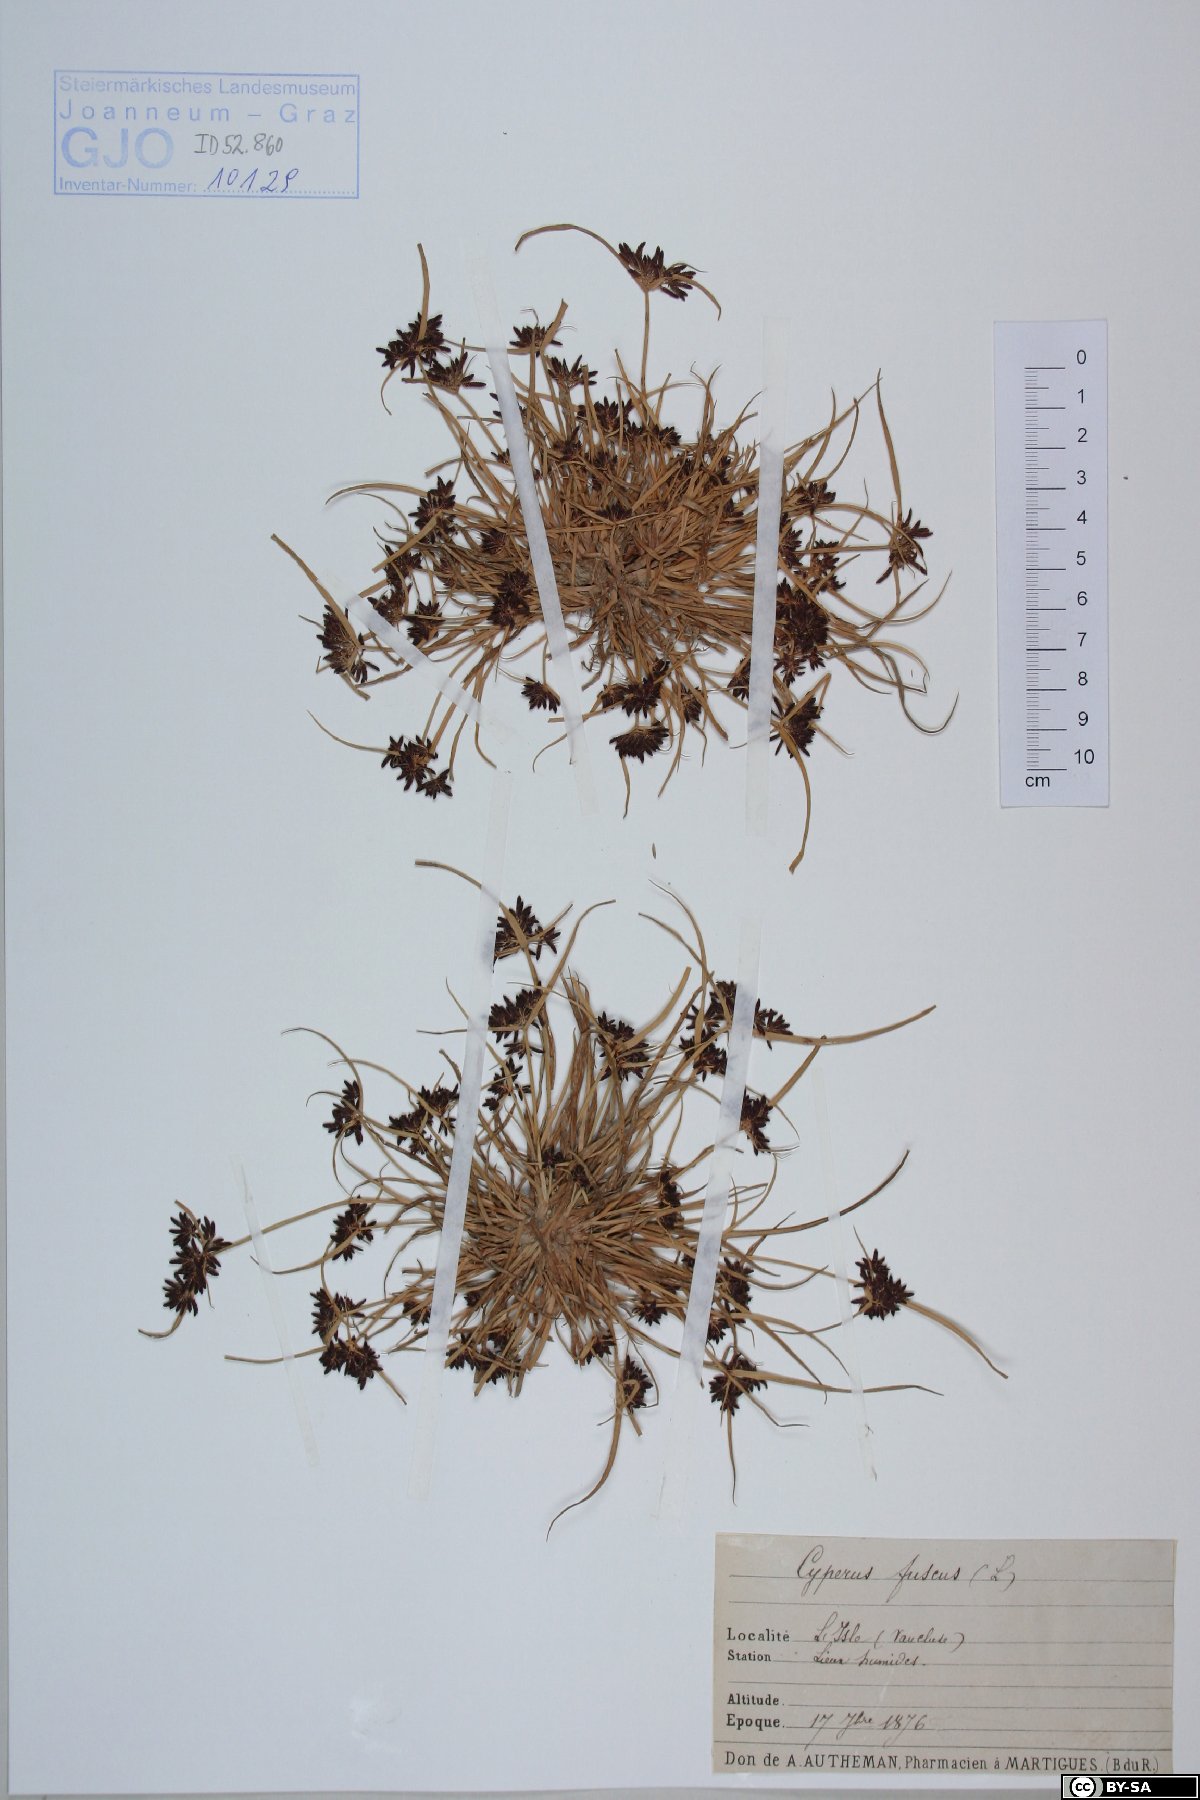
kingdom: Plantae
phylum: Tracheophyta
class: Liliopsida
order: Poales
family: Cyperaceae
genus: Cyperus
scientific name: Cyperus fuscus
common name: Brown galingale
